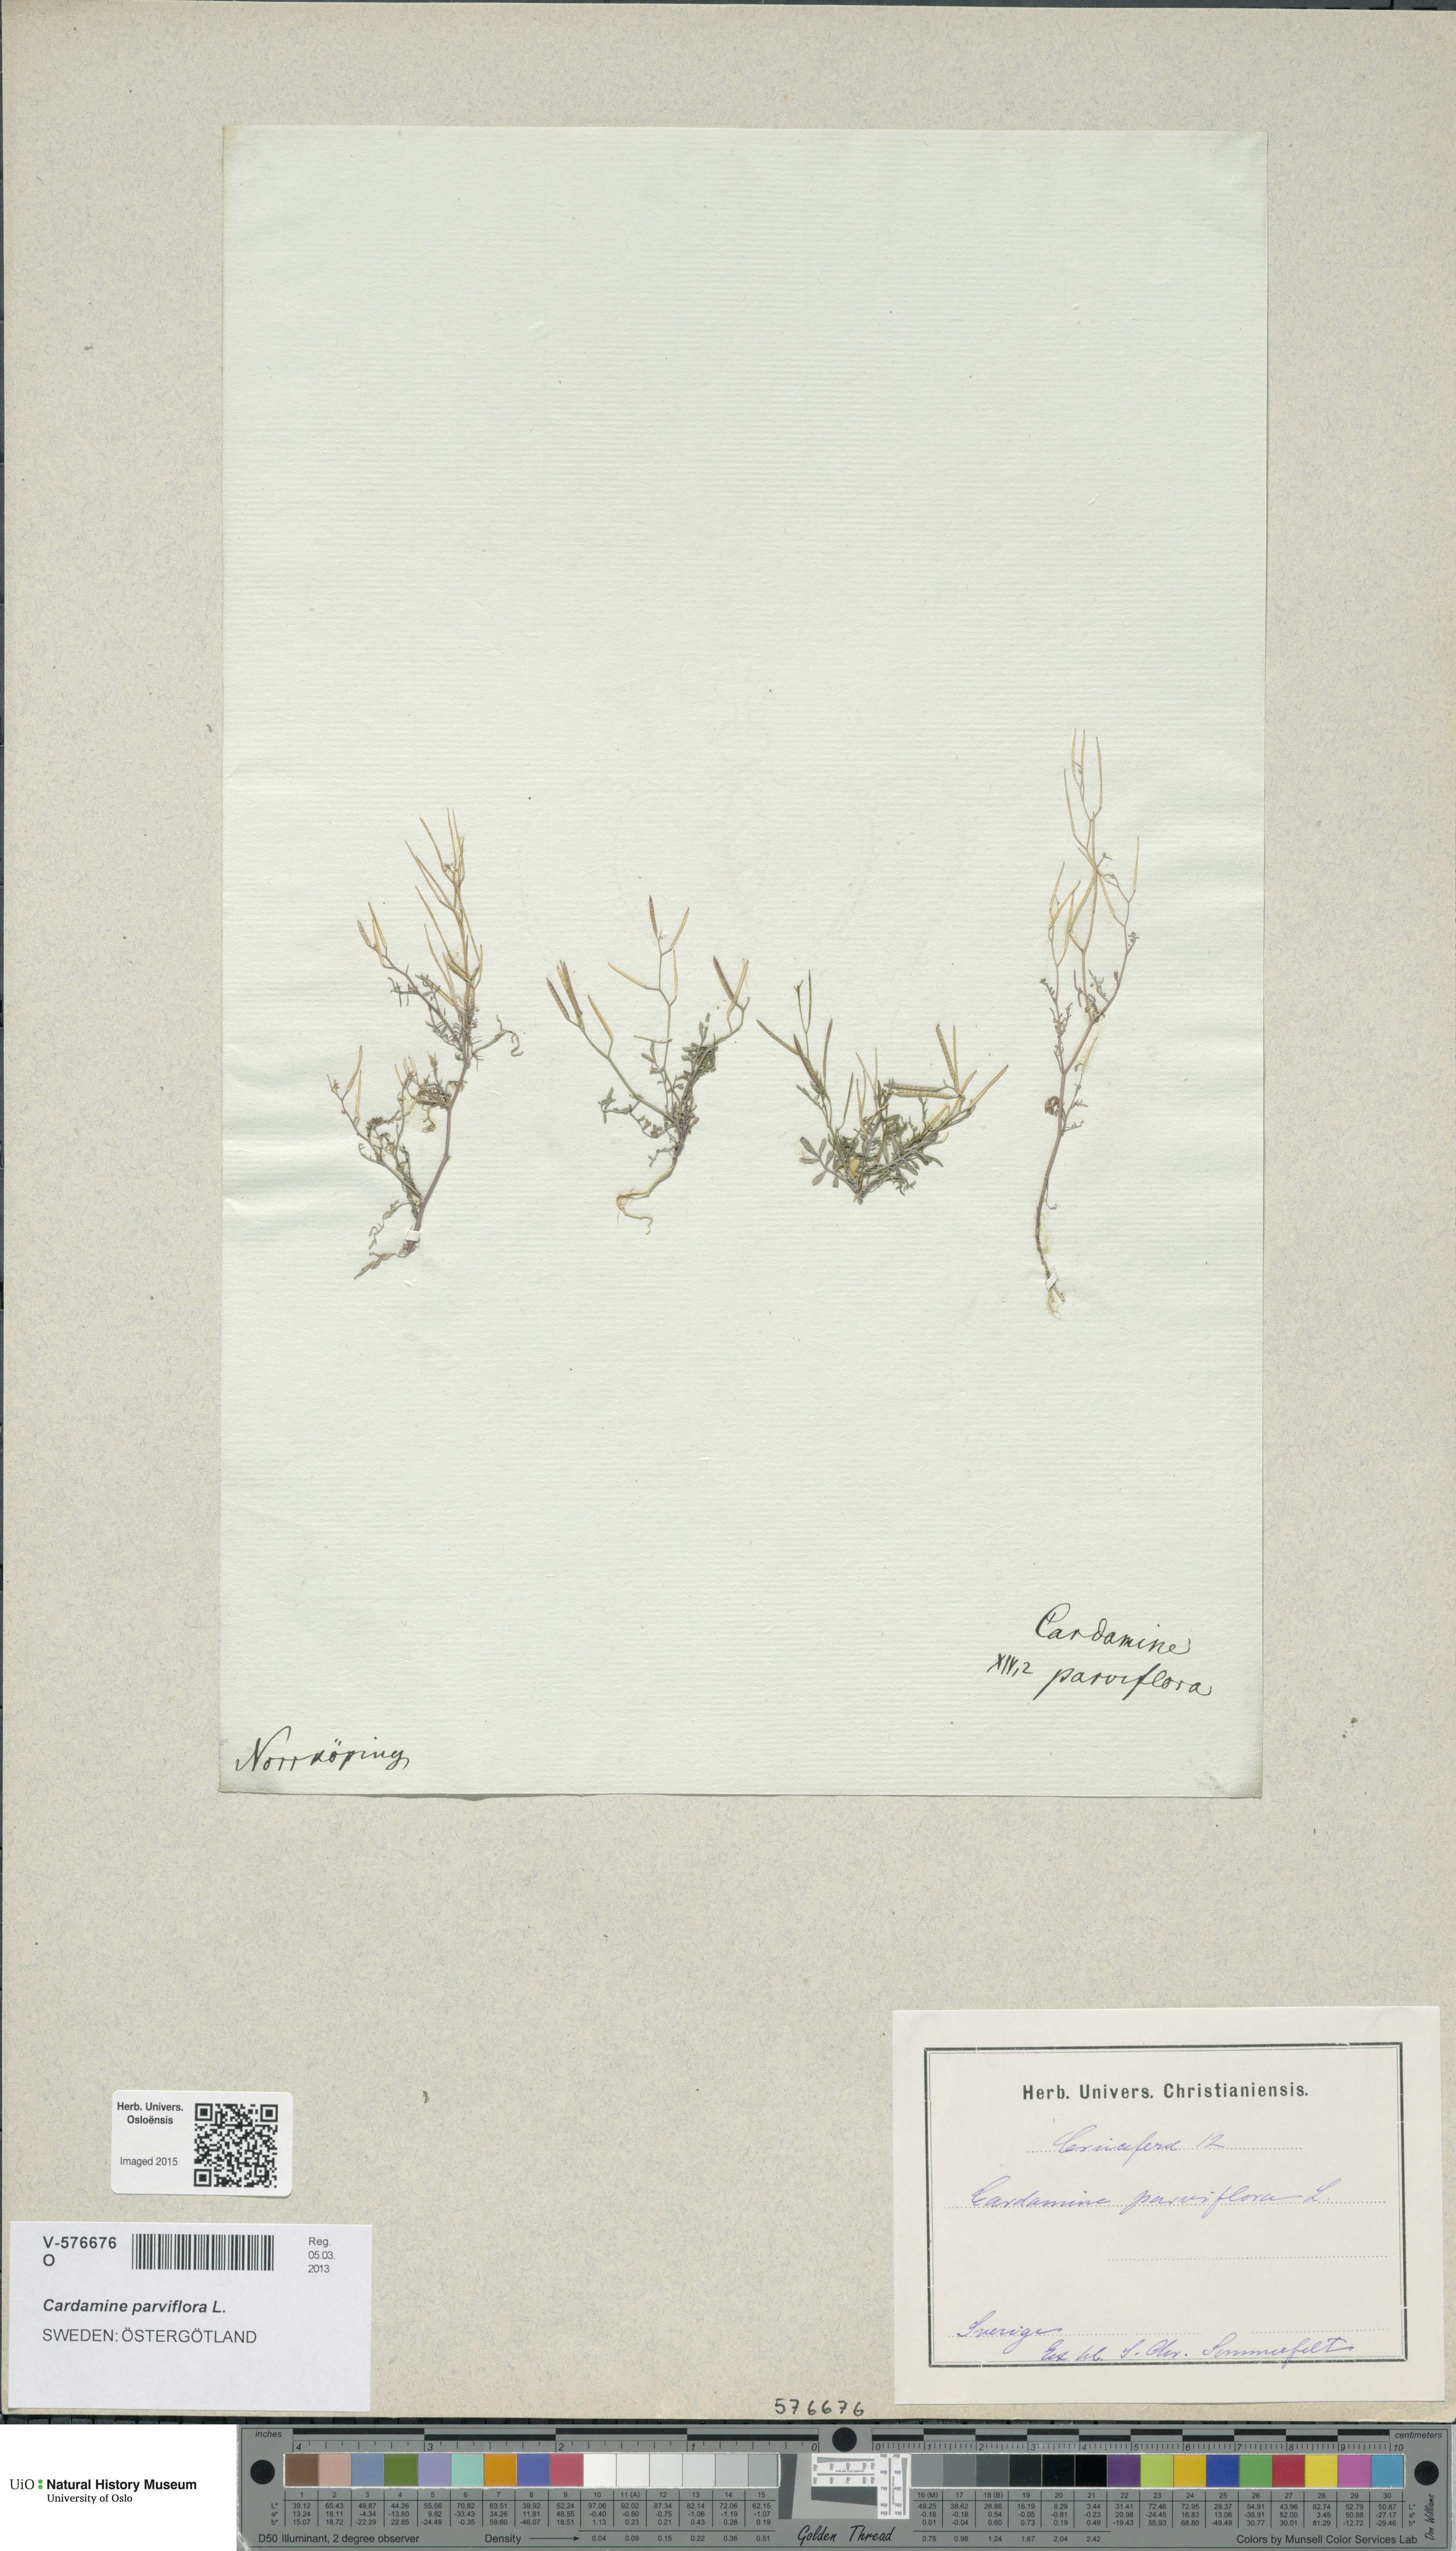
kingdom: Plantae
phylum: Tracheophyta
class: Magnoliopsida
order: Brassicales
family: Brassicaceae
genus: Cardamine
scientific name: Cardamine parviflora
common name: Sand bittercress
